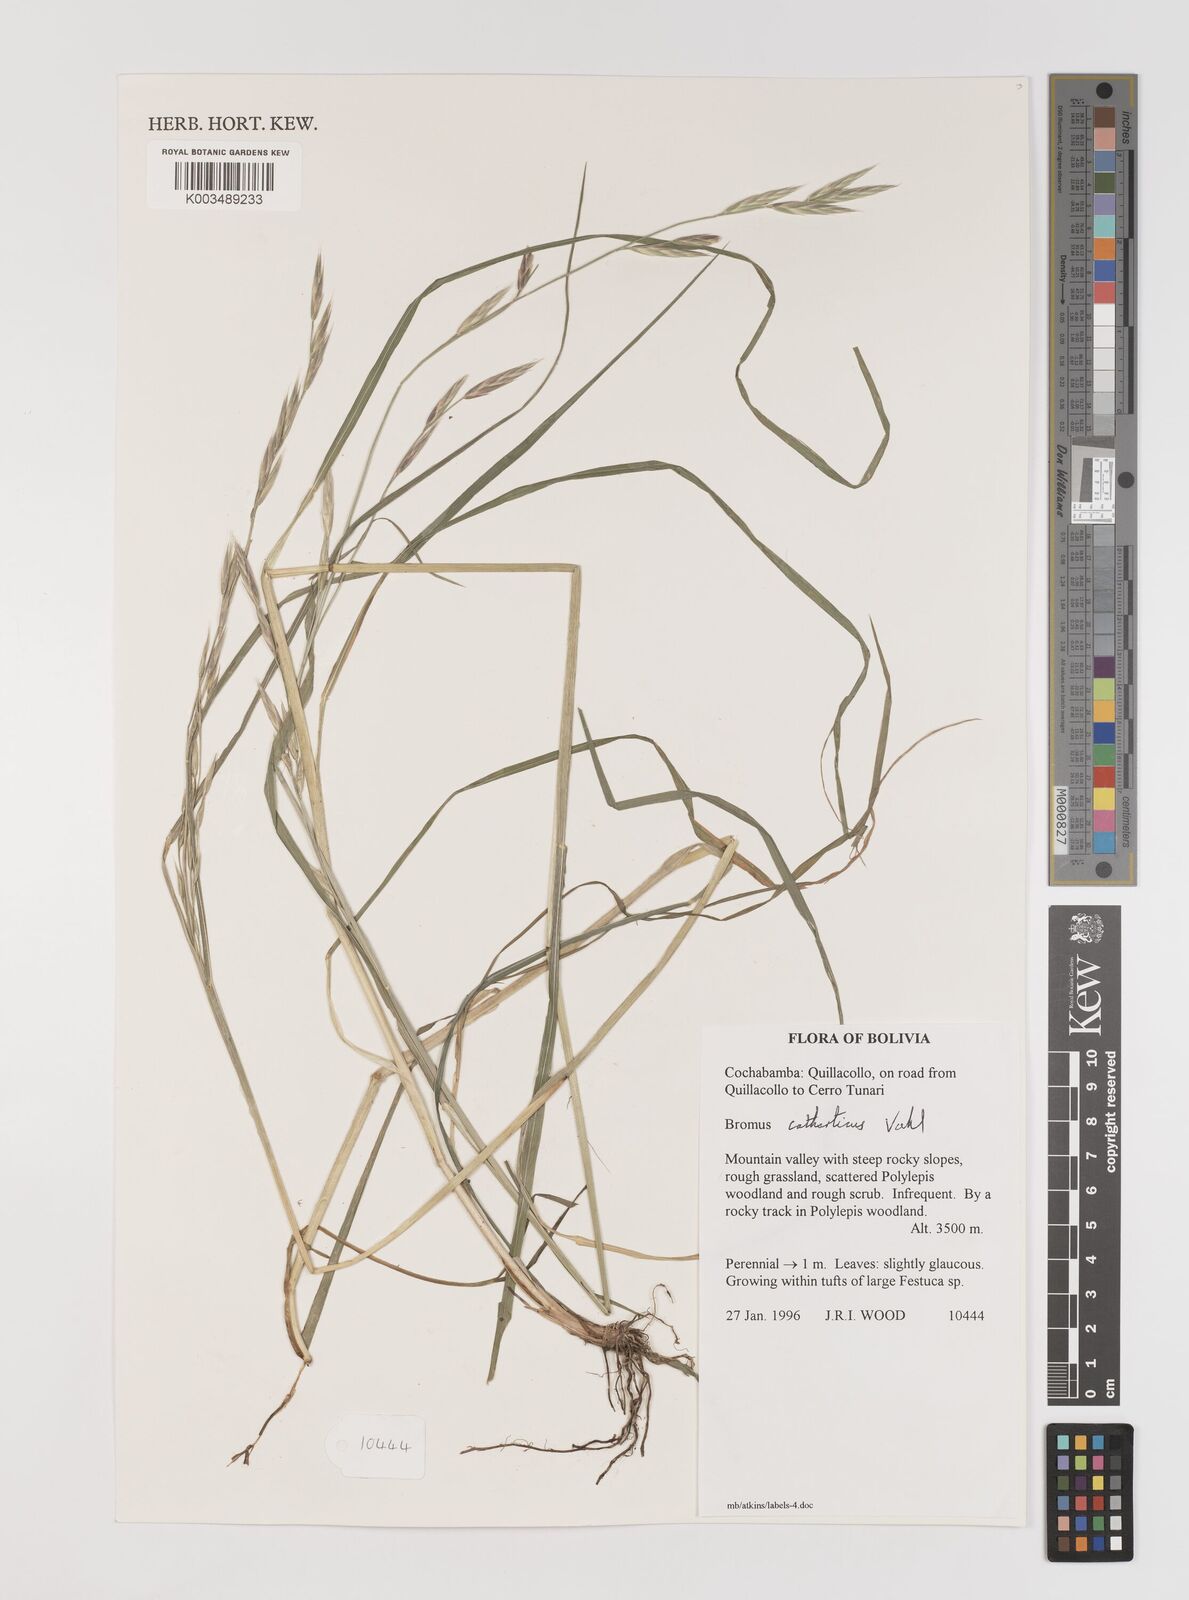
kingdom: Plantae
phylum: Tracheophyta
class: Liliopsida
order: Poales
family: Poaceae
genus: Bromus
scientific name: Bromus catharticus
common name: Rescuegrass
